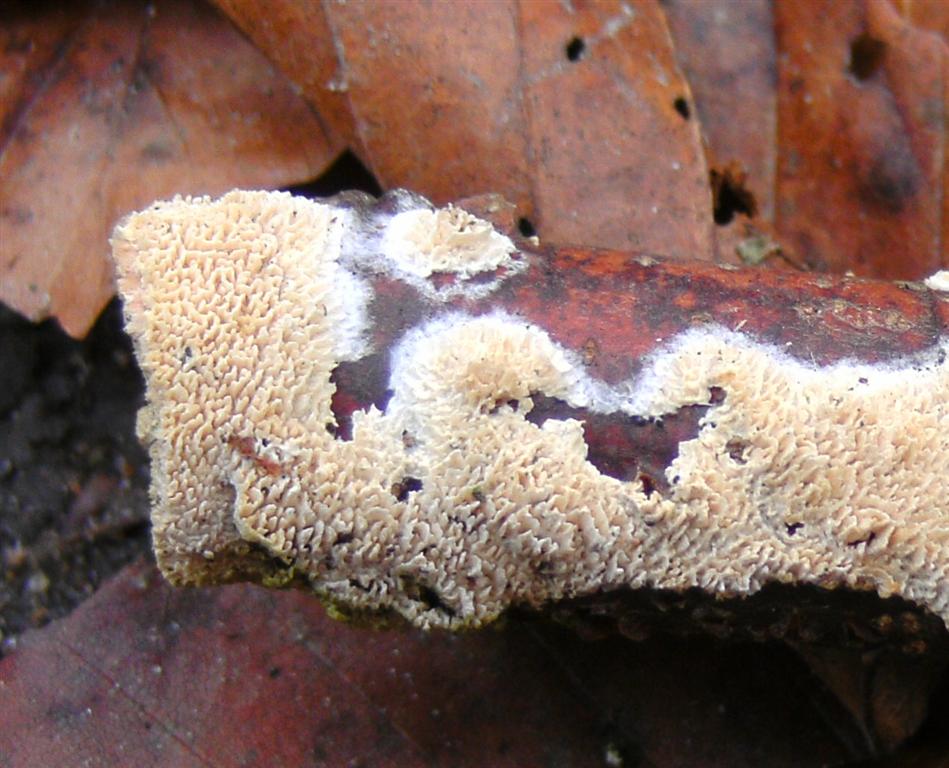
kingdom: Fungi
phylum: Basidiomycota
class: Agaricomycetes
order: Hymenochaetales
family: Schizoporaceae
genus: Schizopora
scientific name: Schizopora paradoxa
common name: hvid tandsvamp
